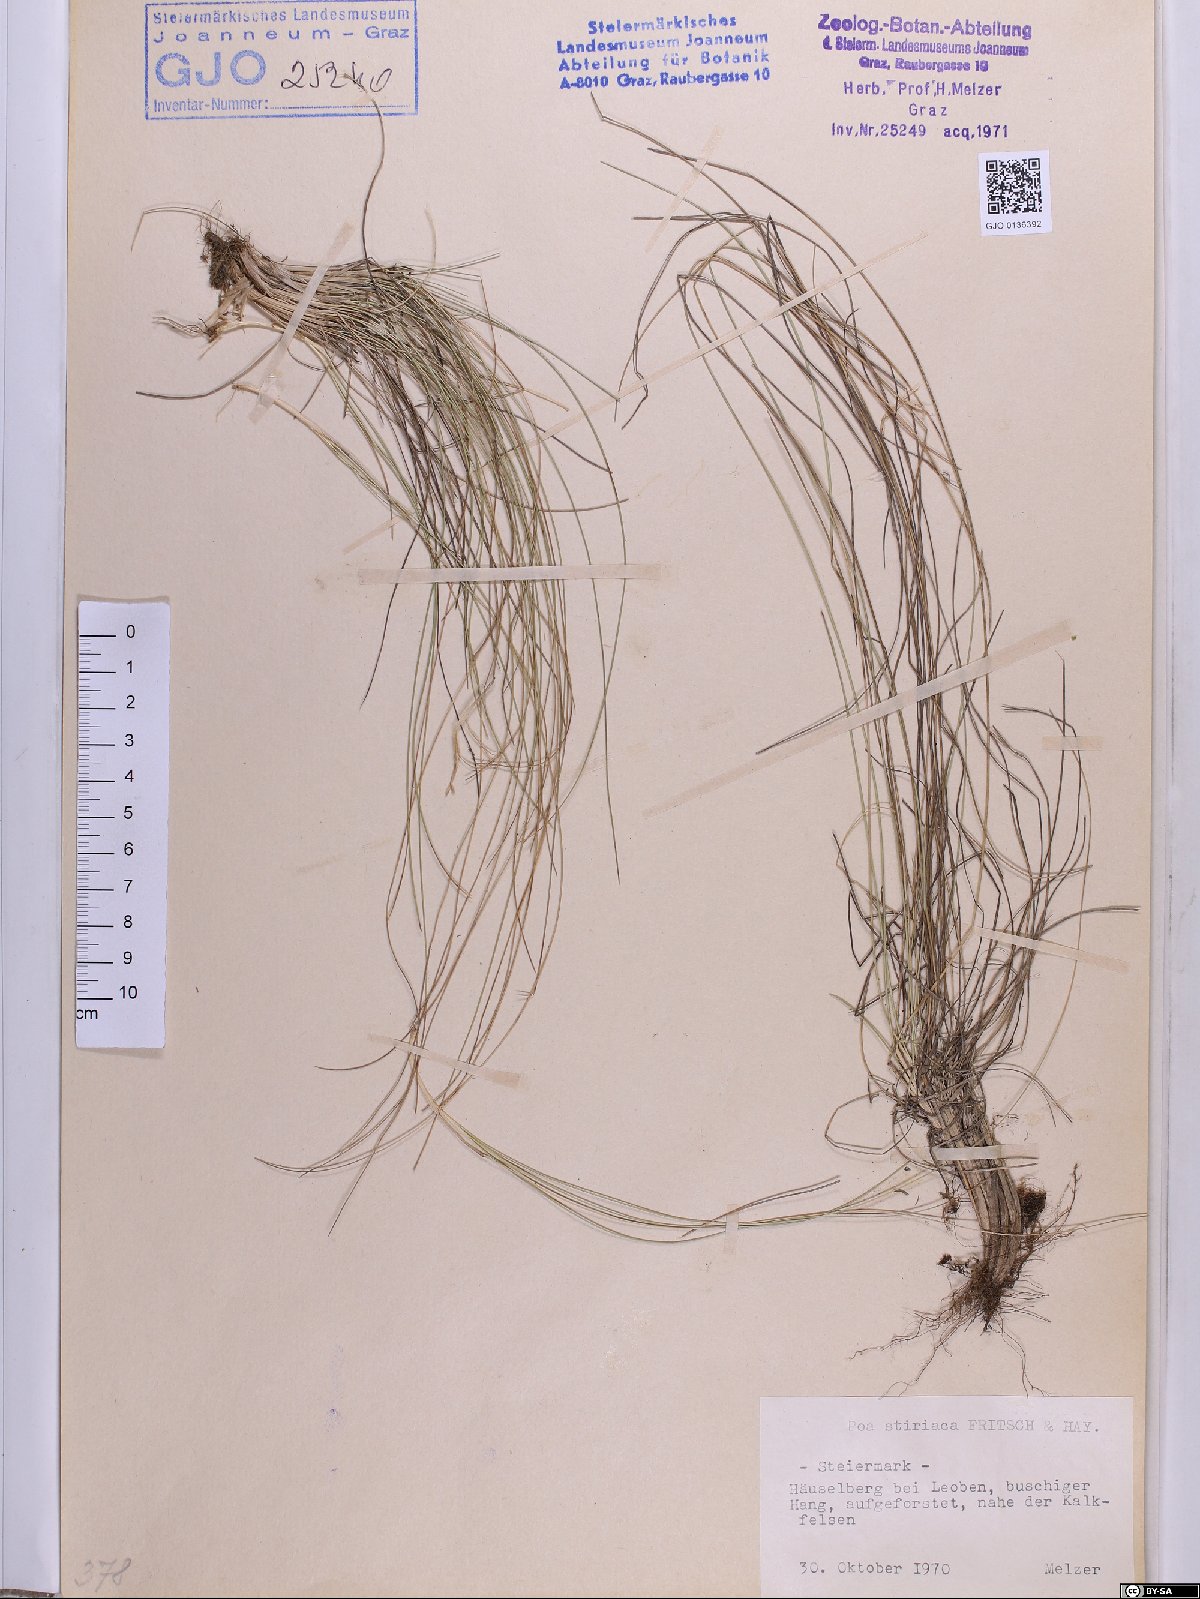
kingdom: Plantae
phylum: Tracheophyta
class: Liliopsida
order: Poales
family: Poaceae
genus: Poa
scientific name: Poa stiriaca
